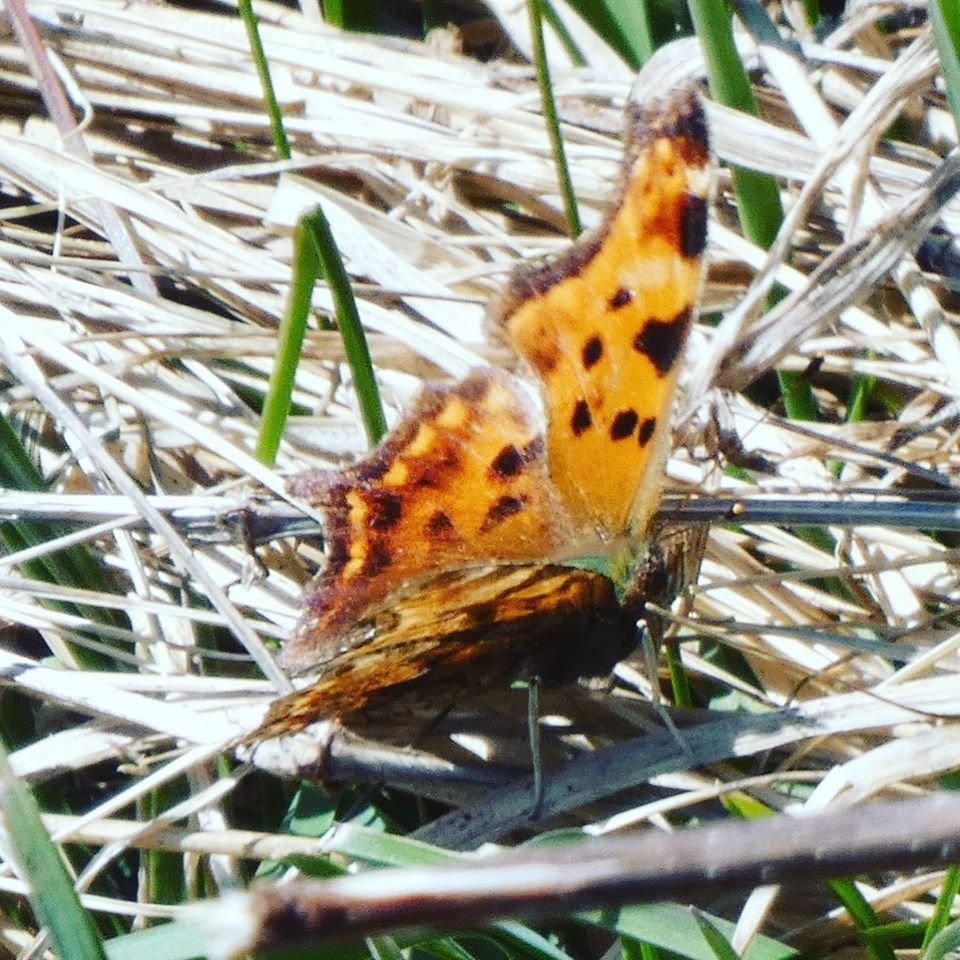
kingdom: Animalia
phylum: Arthropoda
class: Insecta
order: Lepidoptera
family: Nymphalidae
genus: Polygonia
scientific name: Polygonia comma
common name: Eastern Comma
